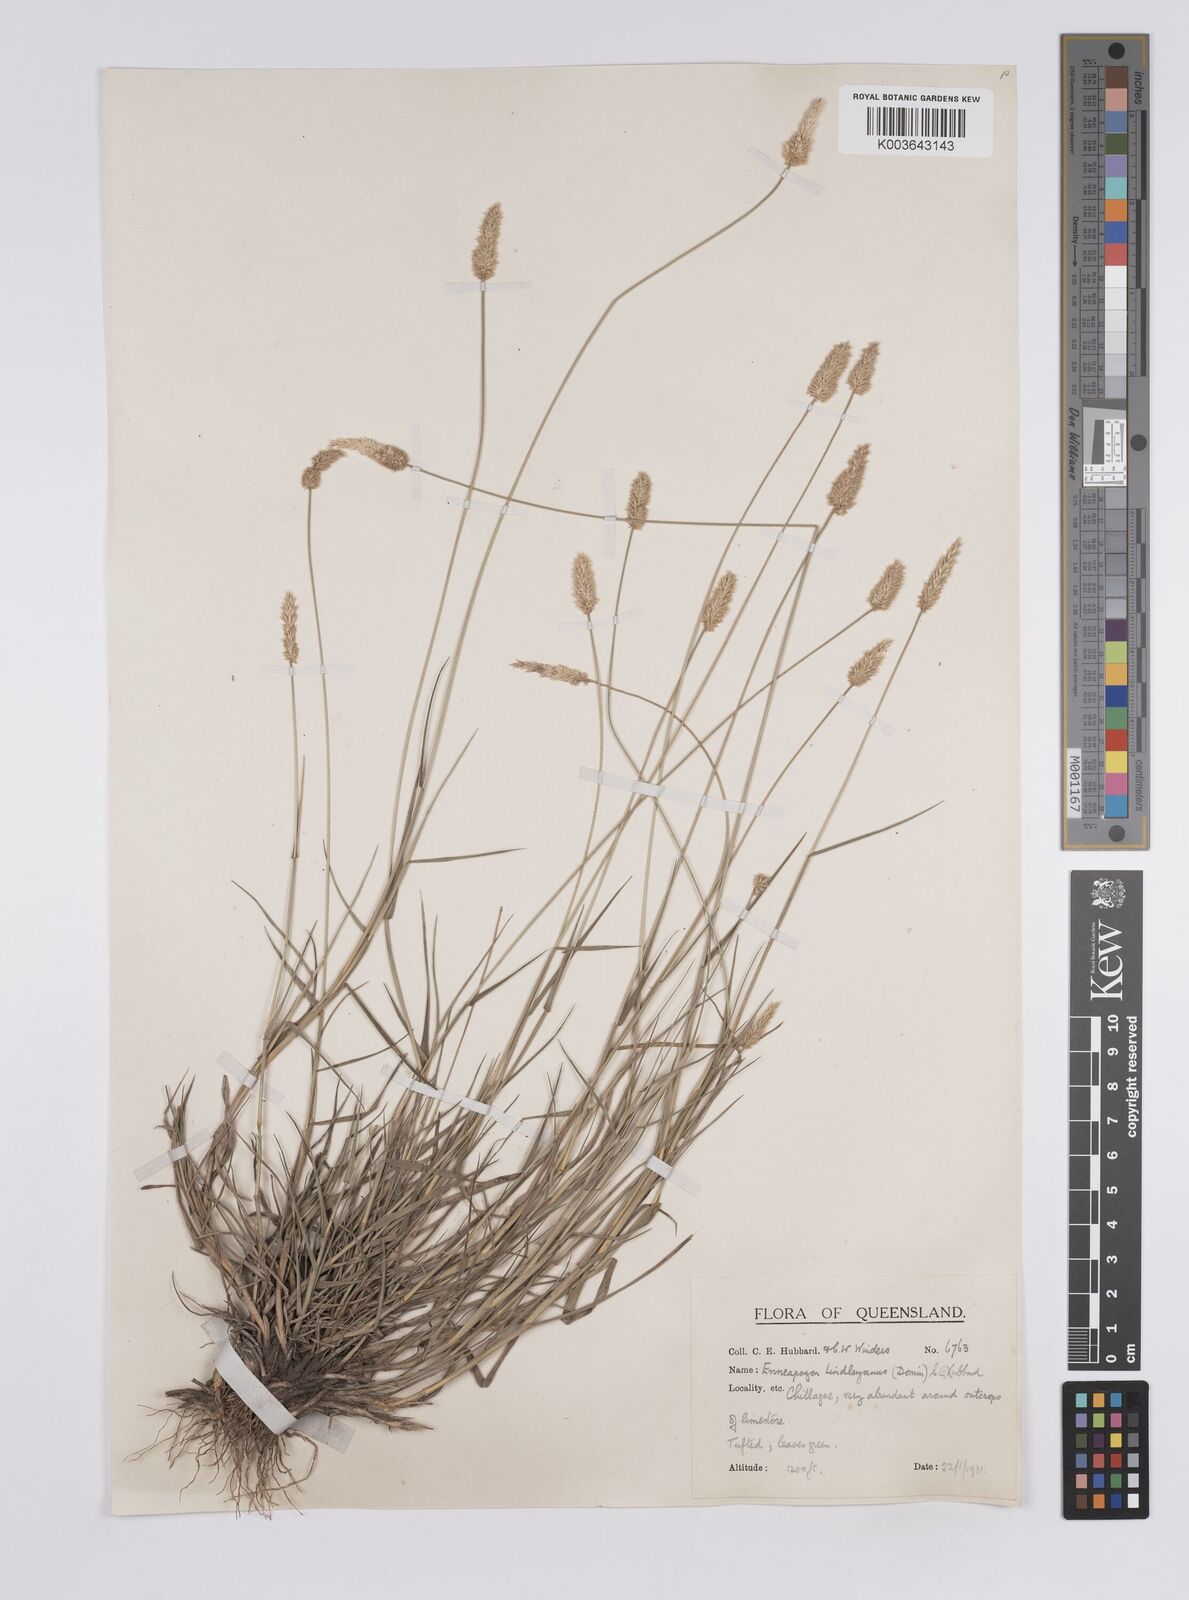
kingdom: Plantae
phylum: Tracheophyta
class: Liliopsida
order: Poales
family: Poaceae
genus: Enneapogon
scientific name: Enneapogon lindleyanus
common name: Conetop nineawn
